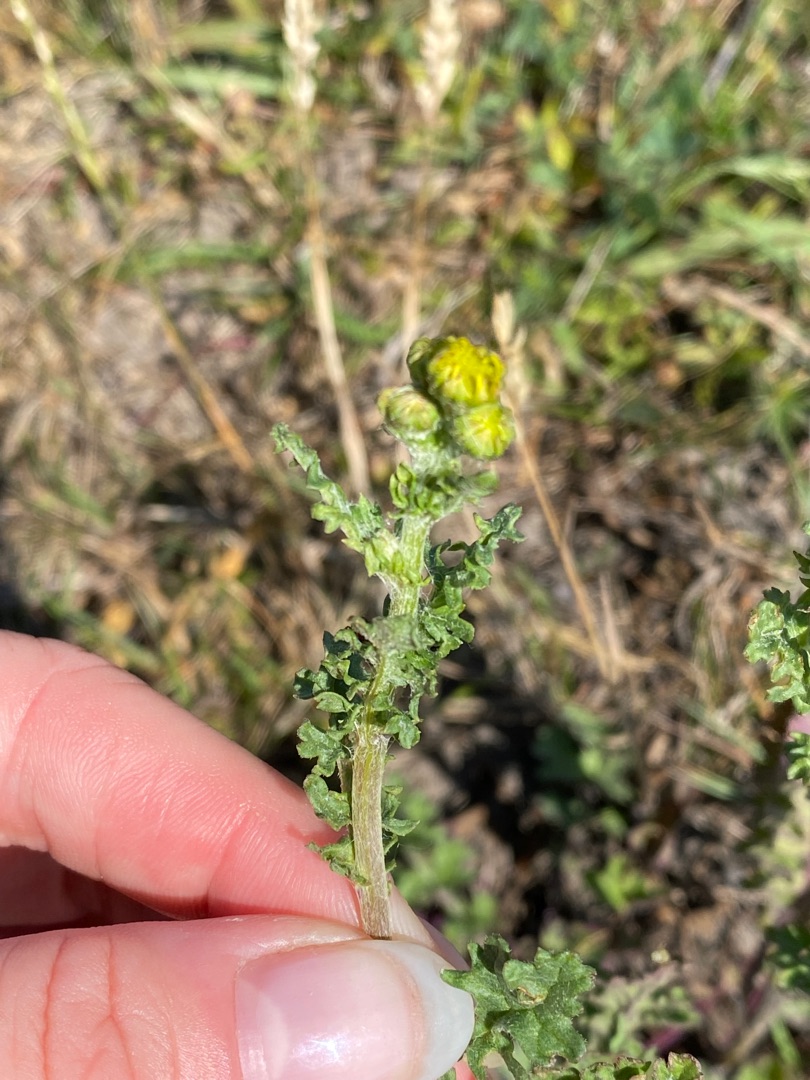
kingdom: Plantae
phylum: Tracheophyta
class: Magnoliopsida
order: Asterales
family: Asteraceae
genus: Jacobaea
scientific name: Jacobaea vulgaris
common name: Eng-brandbæger
